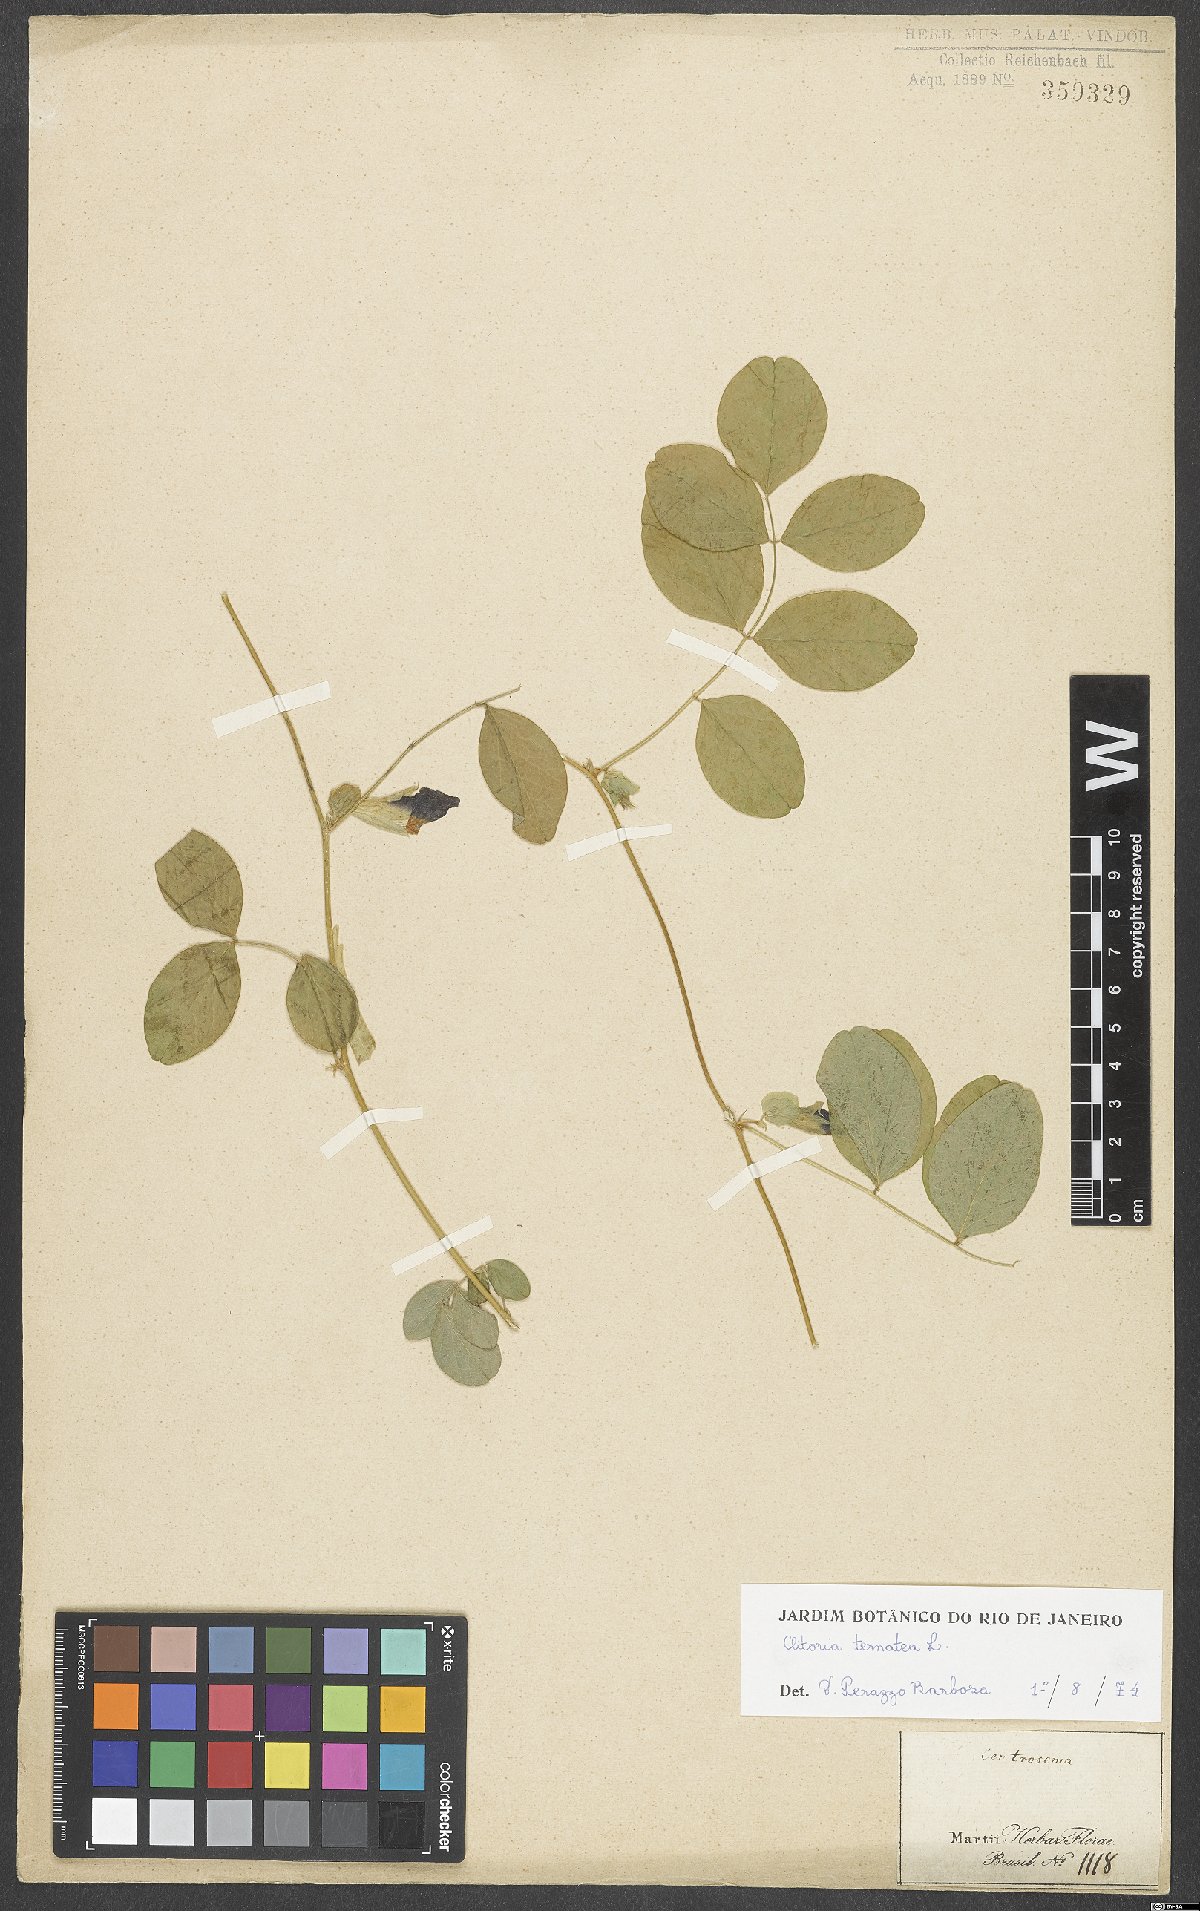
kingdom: Plantae
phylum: Tracheophyta
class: Magnoliopsida
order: Fabales
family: Fabaceae
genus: Clitoria
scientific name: Clitoria ternatea
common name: Asian pigeonwings
